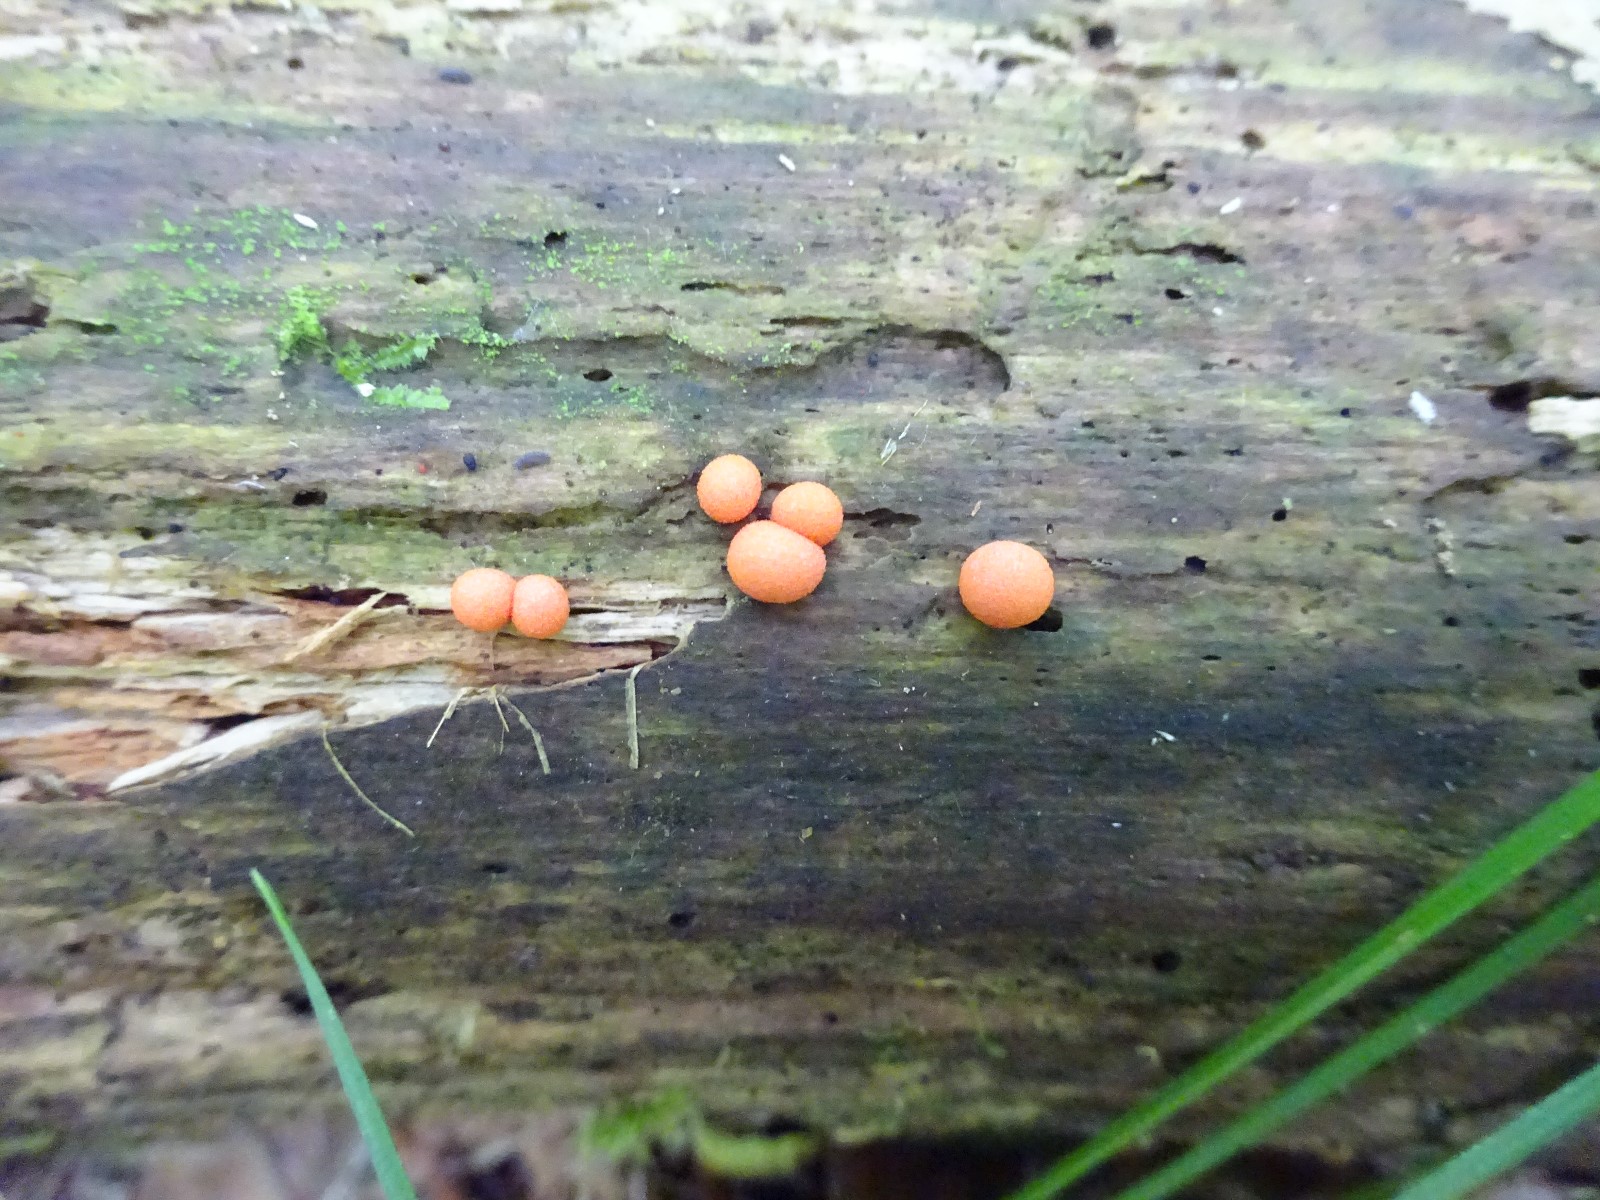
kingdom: Protozoa
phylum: Mycetozoa
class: Myxomycetes
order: Cribrariales
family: Tubiferaceae
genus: Lycogala
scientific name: Lycogala epidendrum
